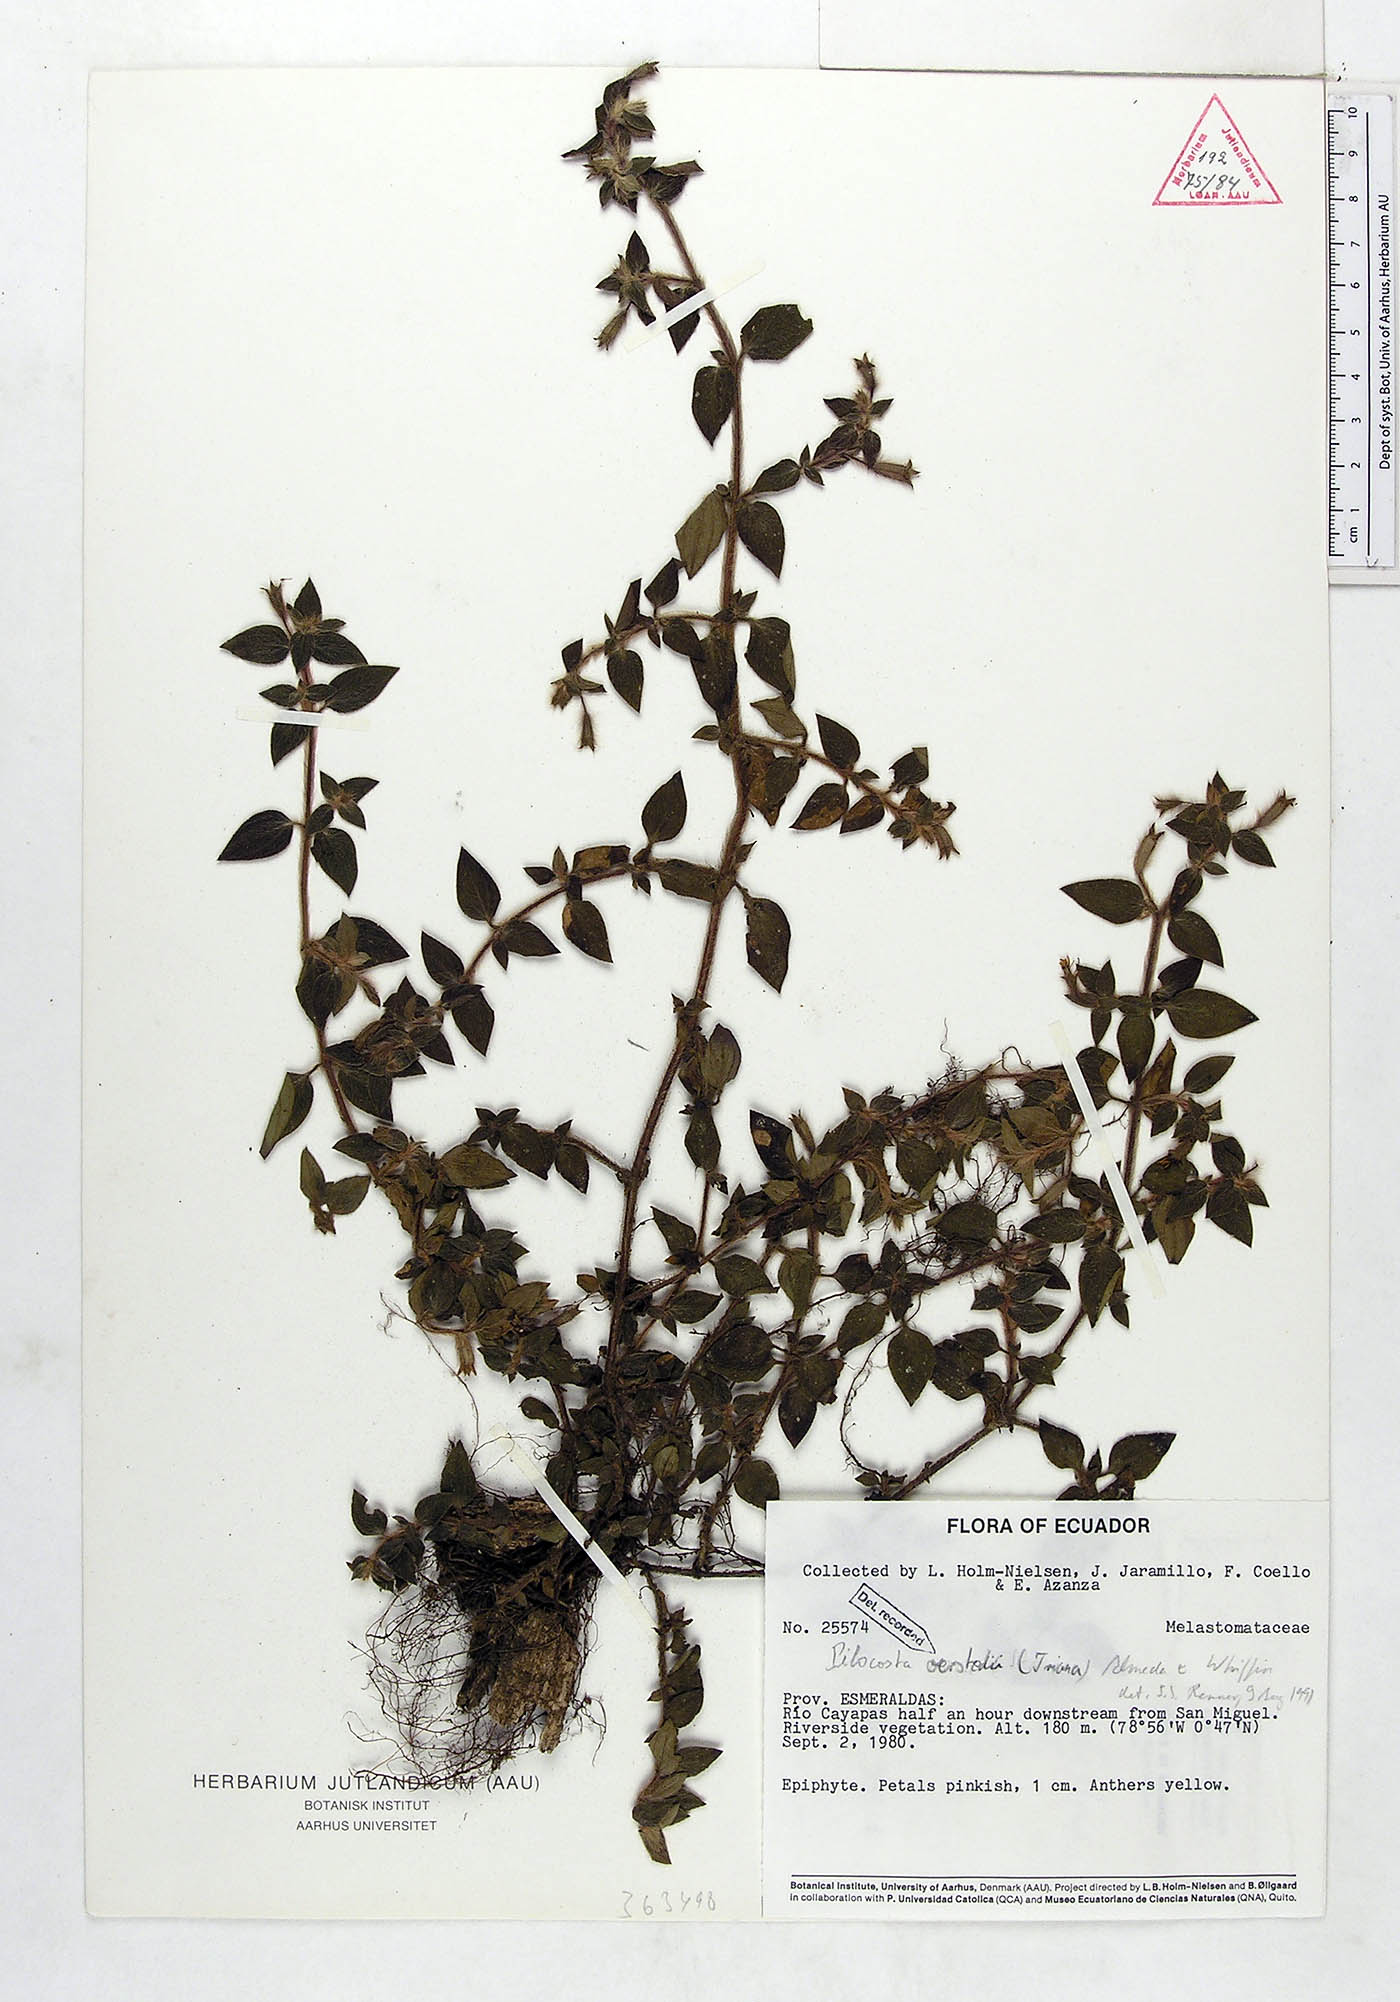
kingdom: Plantae
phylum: Tracheophyta
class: Magnoliopsida
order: Myrtales
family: Melastomataceae
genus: Pilocosta
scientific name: Pilocosta oerstedii
